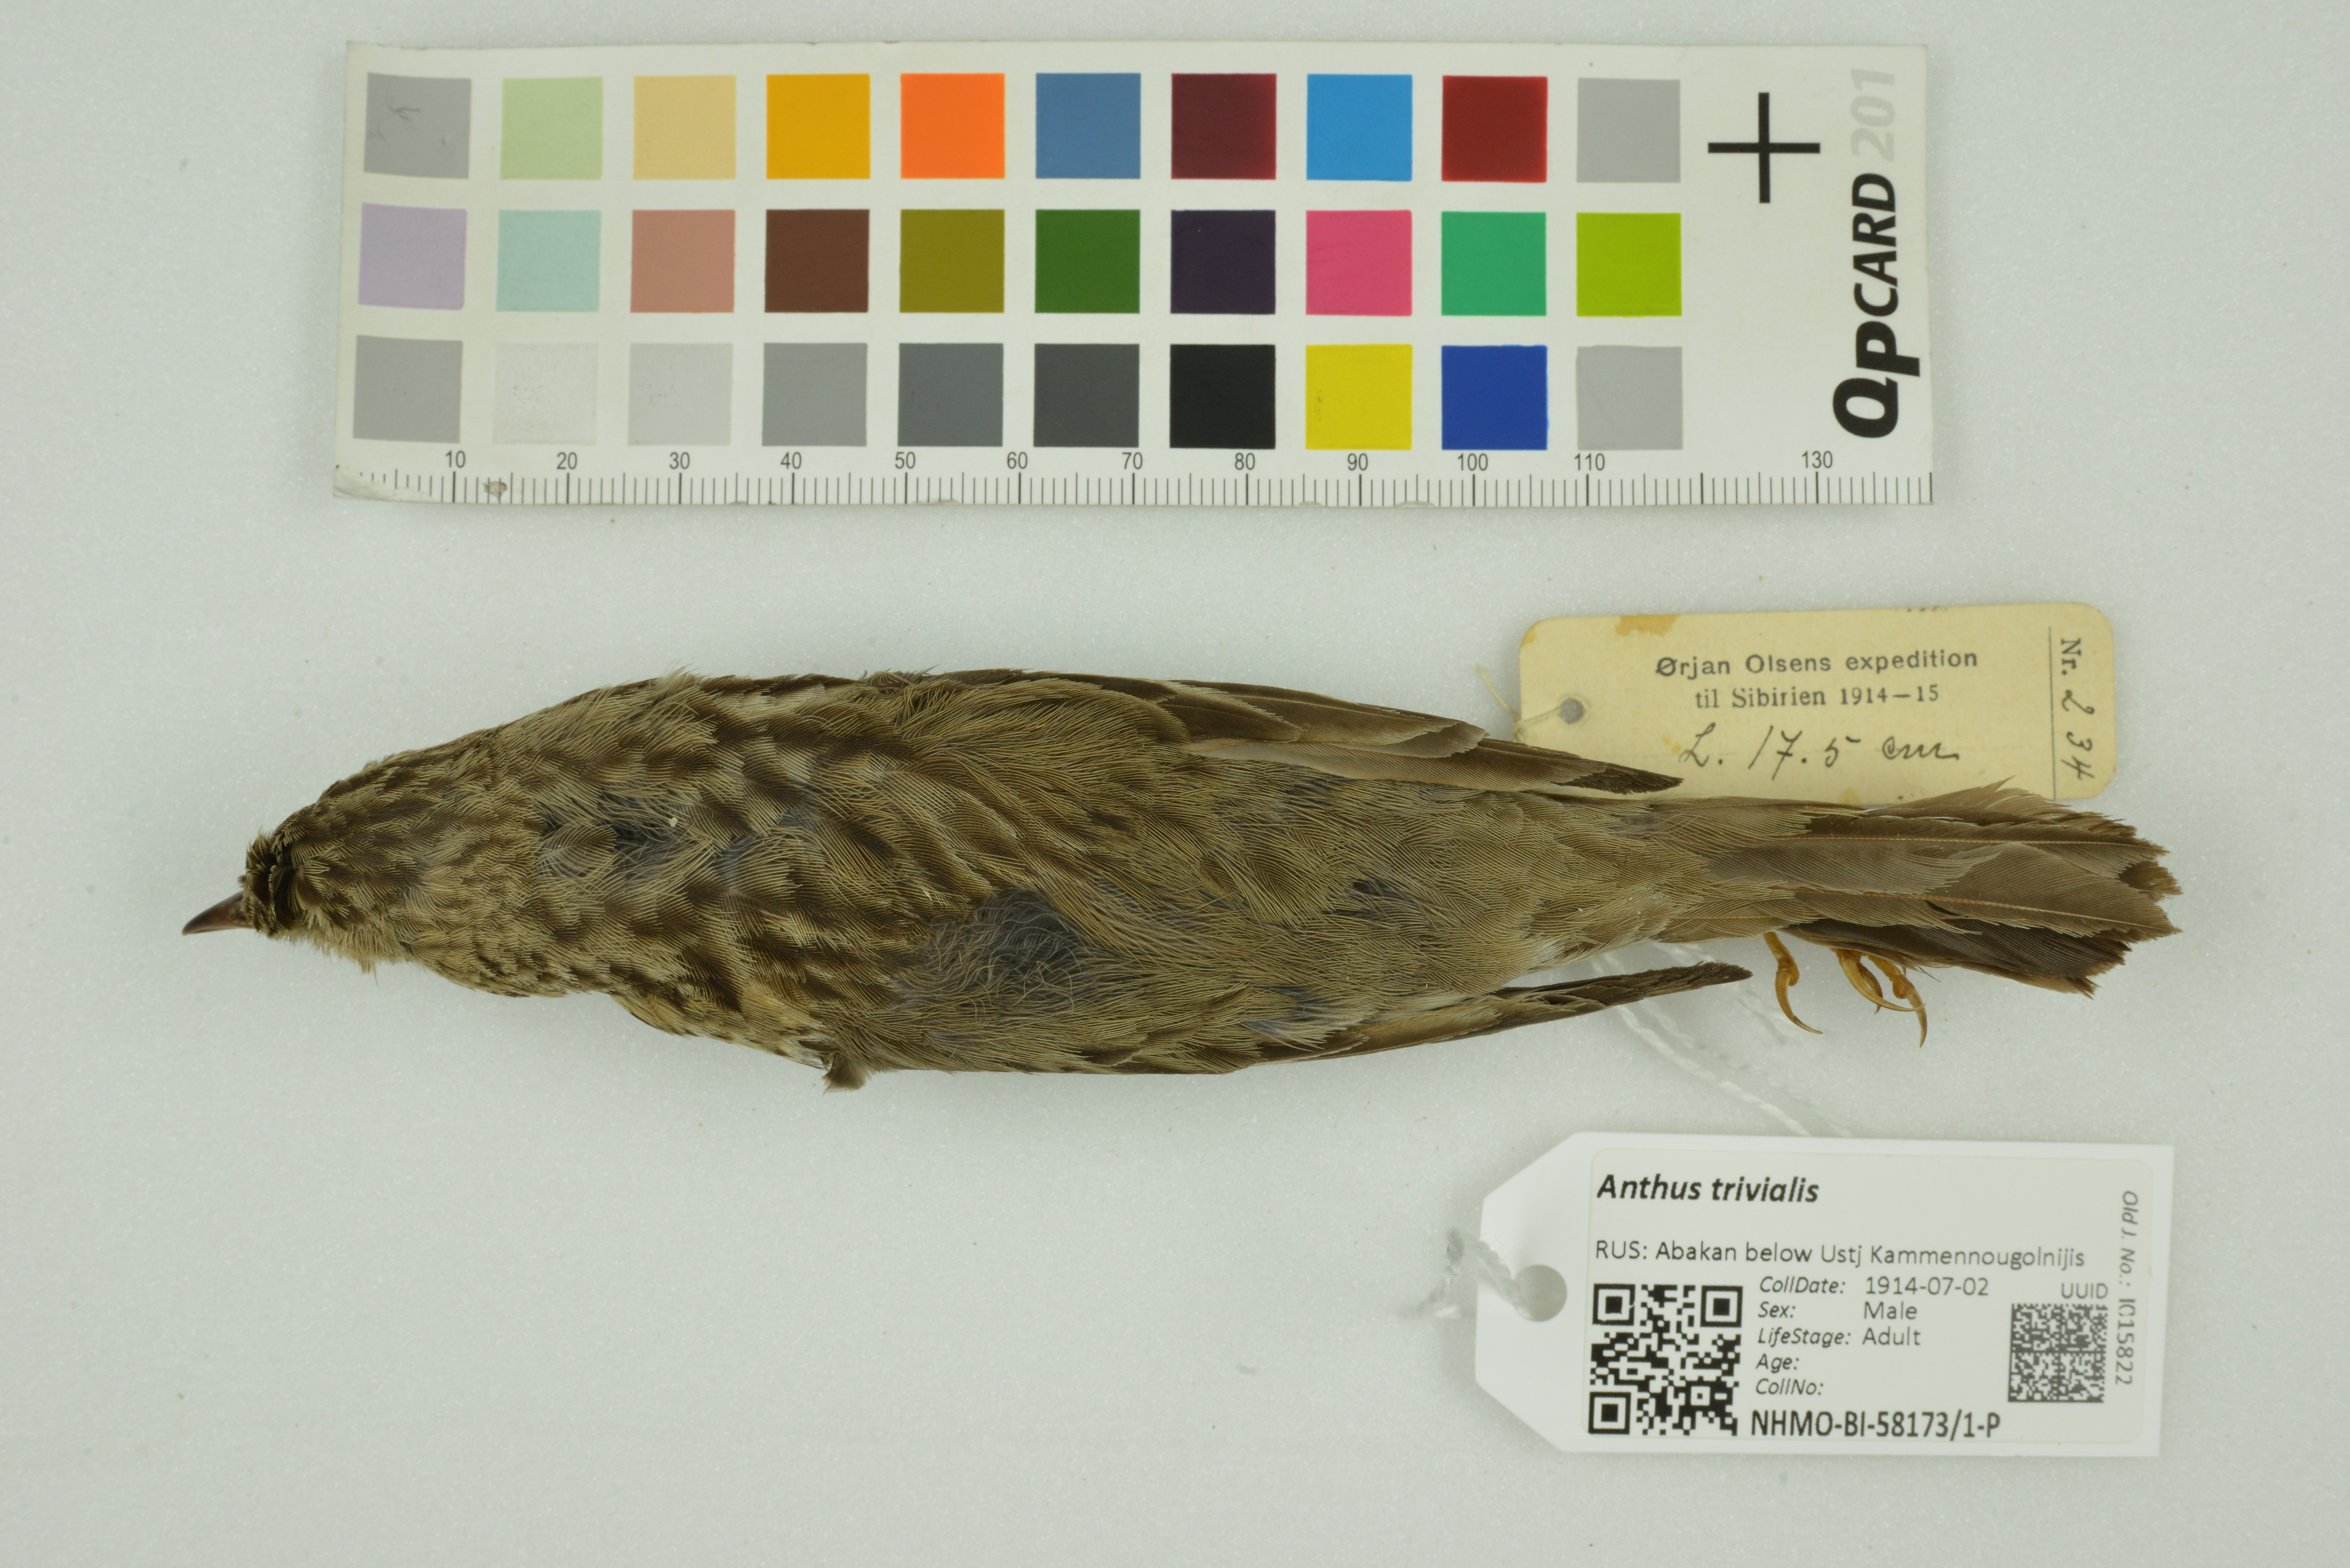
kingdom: Animalia
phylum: Chordata
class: Aves
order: Passeriformes
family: Motacillidae
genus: Anthus
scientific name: Anthus trivialis
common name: Tree pipit
